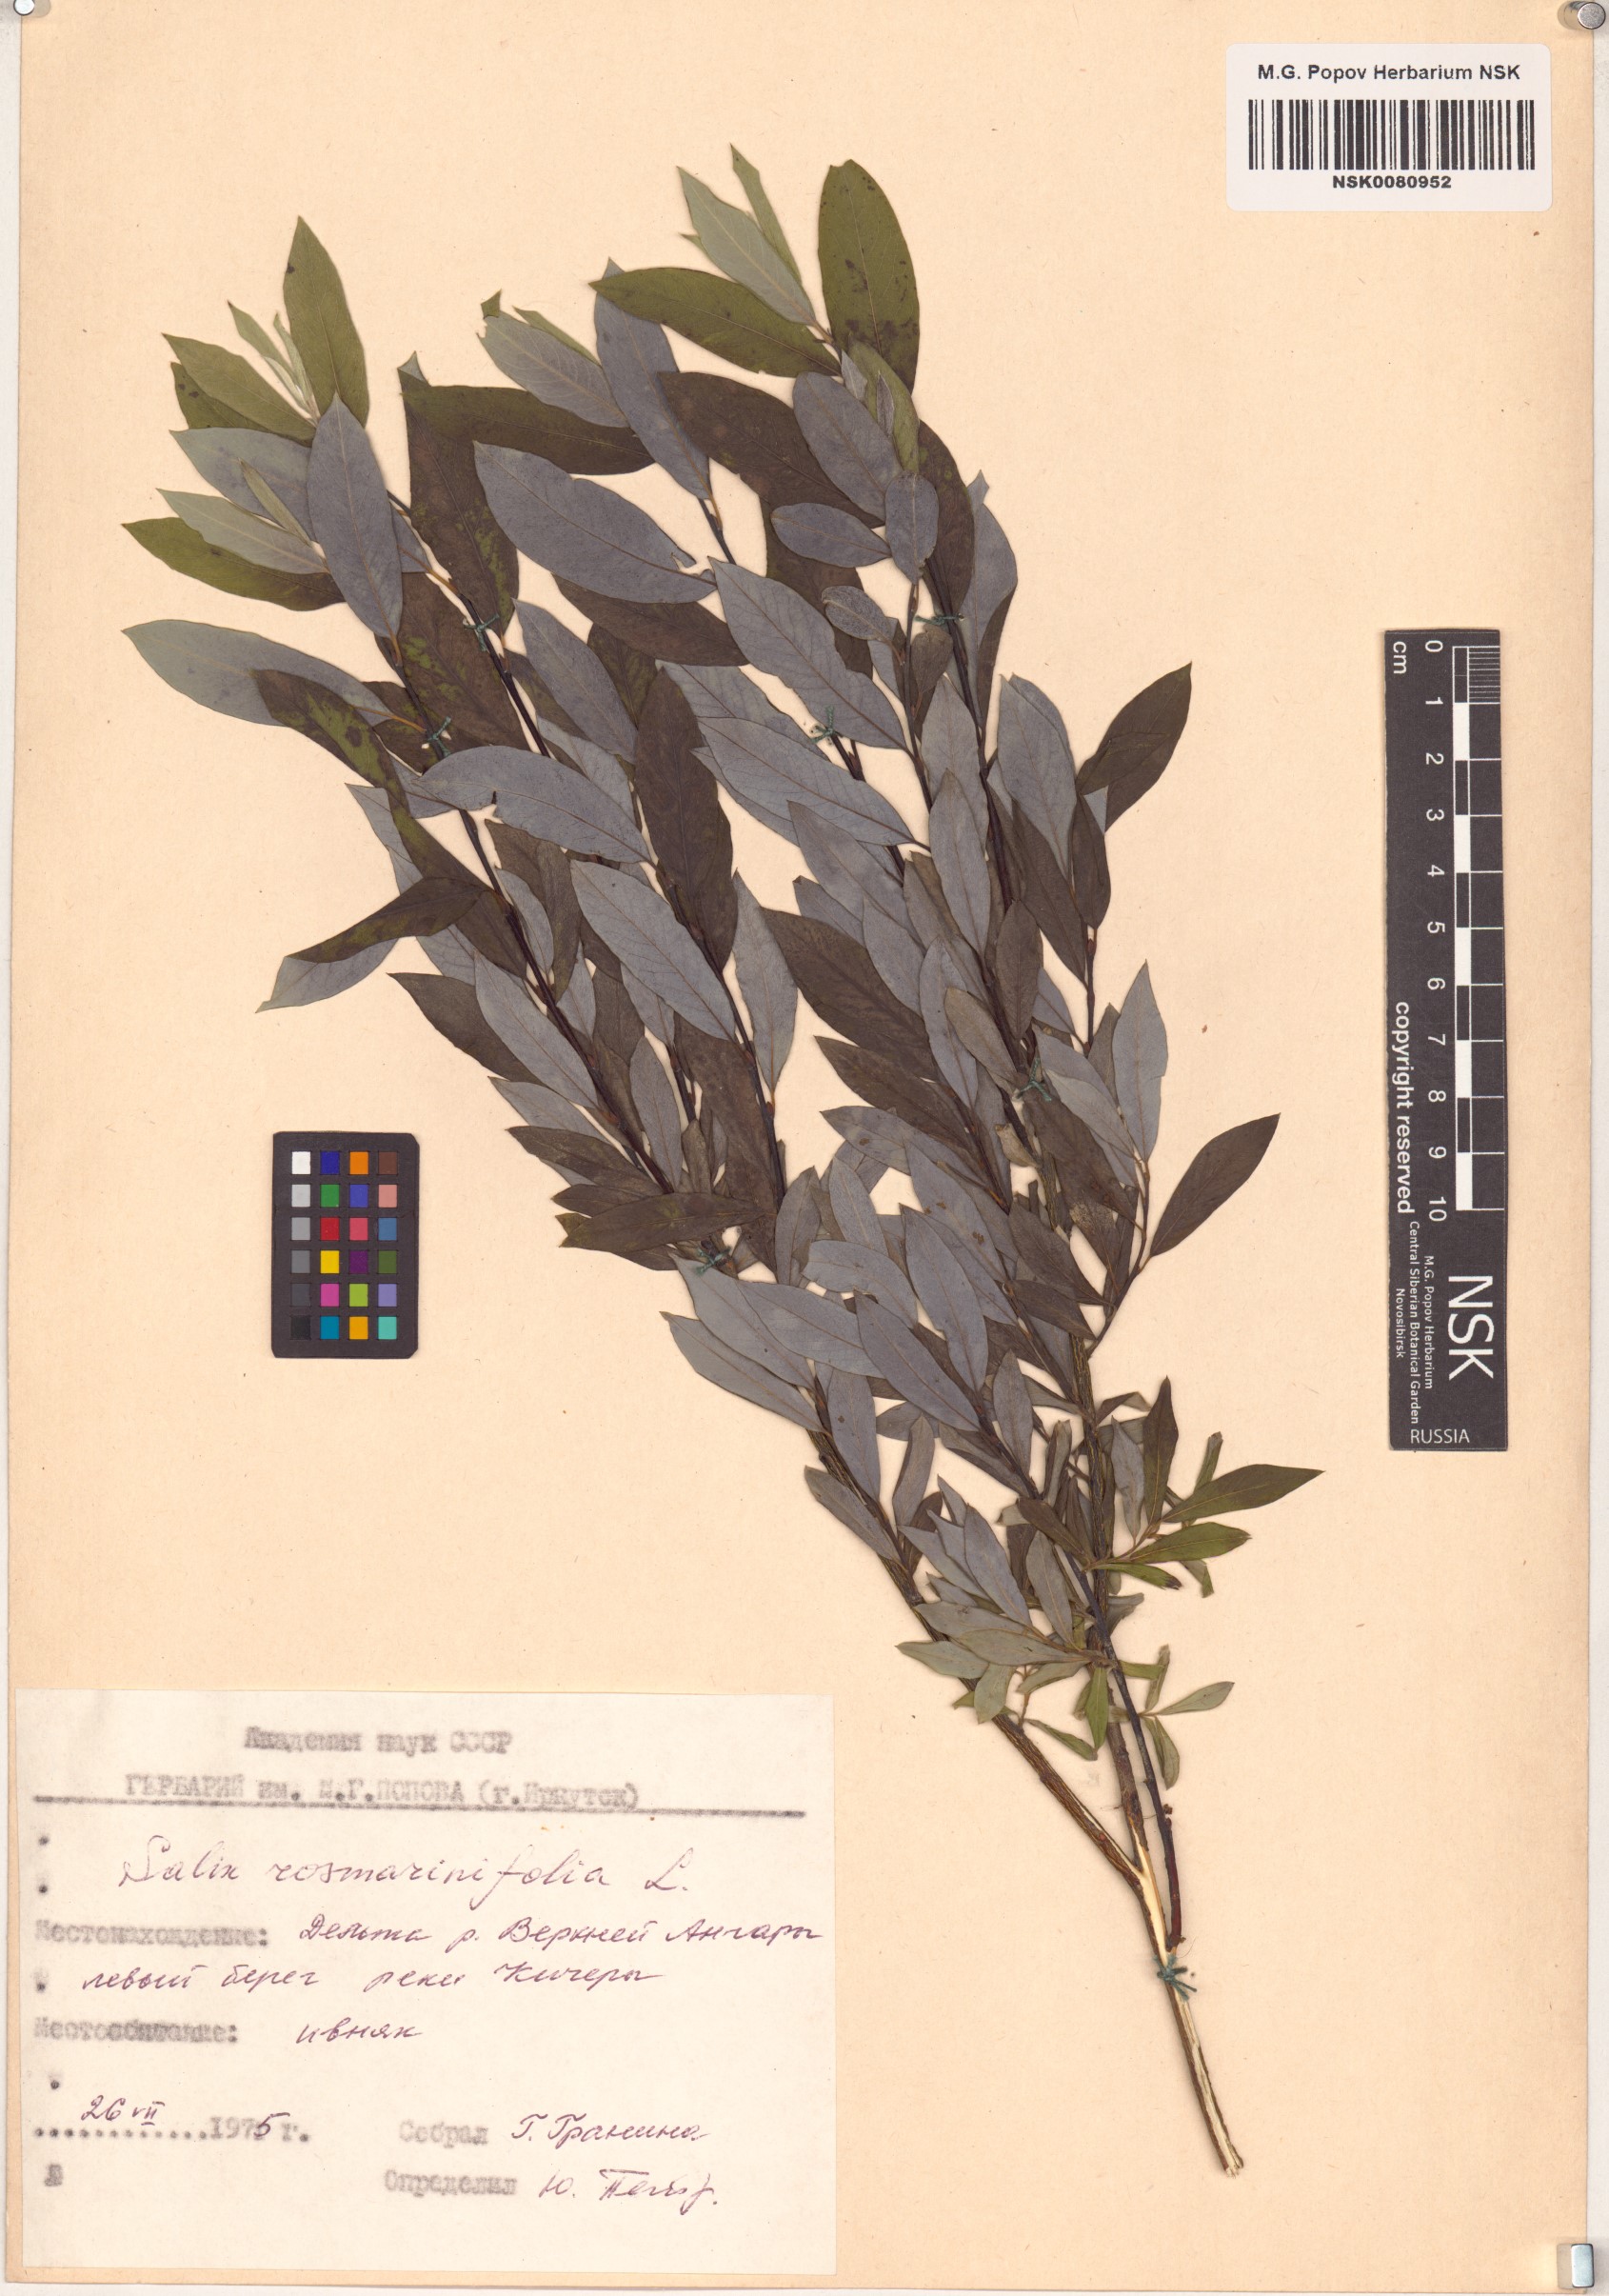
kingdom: Plantae
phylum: Tracheophyta
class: Magnoliopsida
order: Malpighiales
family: Salicaceae
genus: Salix
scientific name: Salix rosmarinifolia
